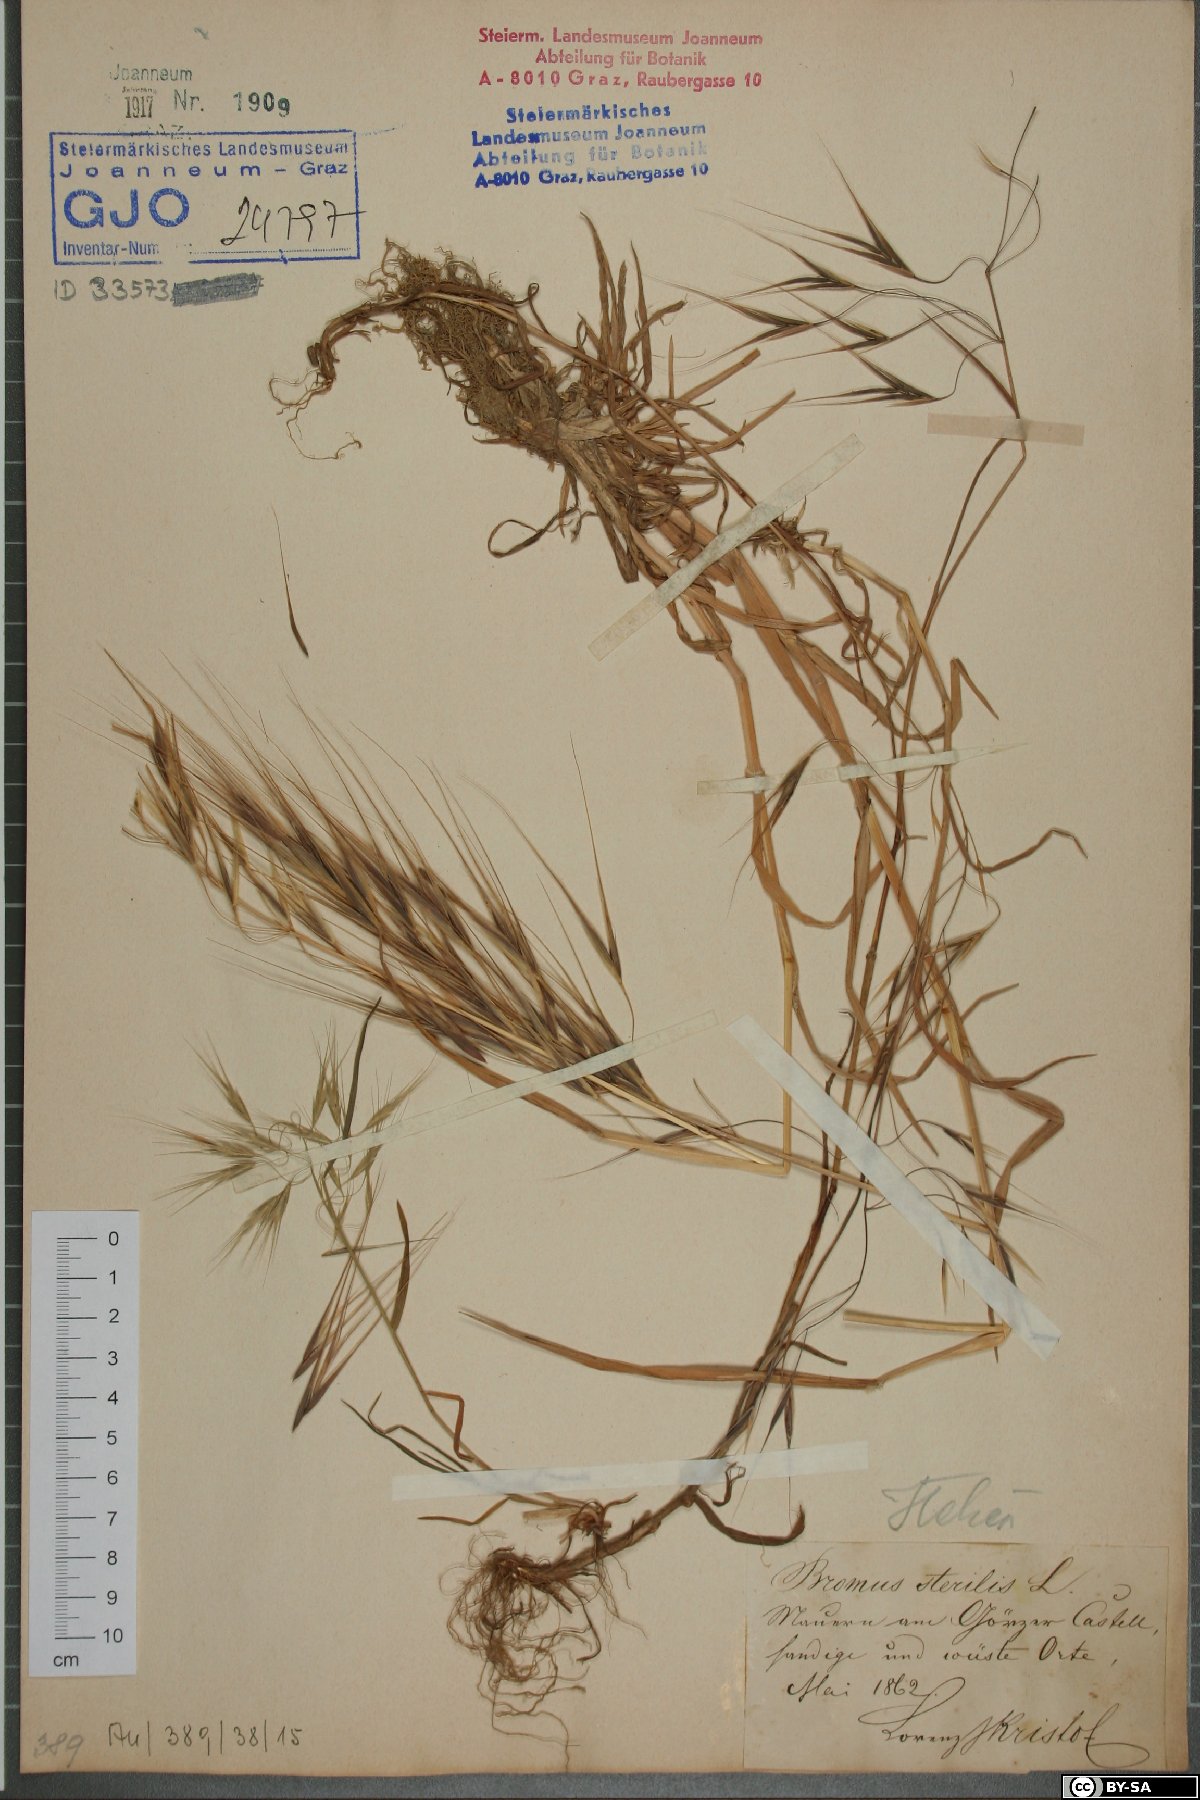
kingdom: Plantae
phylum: Tracheophyta
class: Liliopsida
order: Poales
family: Poaceae
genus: Bromus
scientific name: Bromus sterilis
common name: Poverty brome
